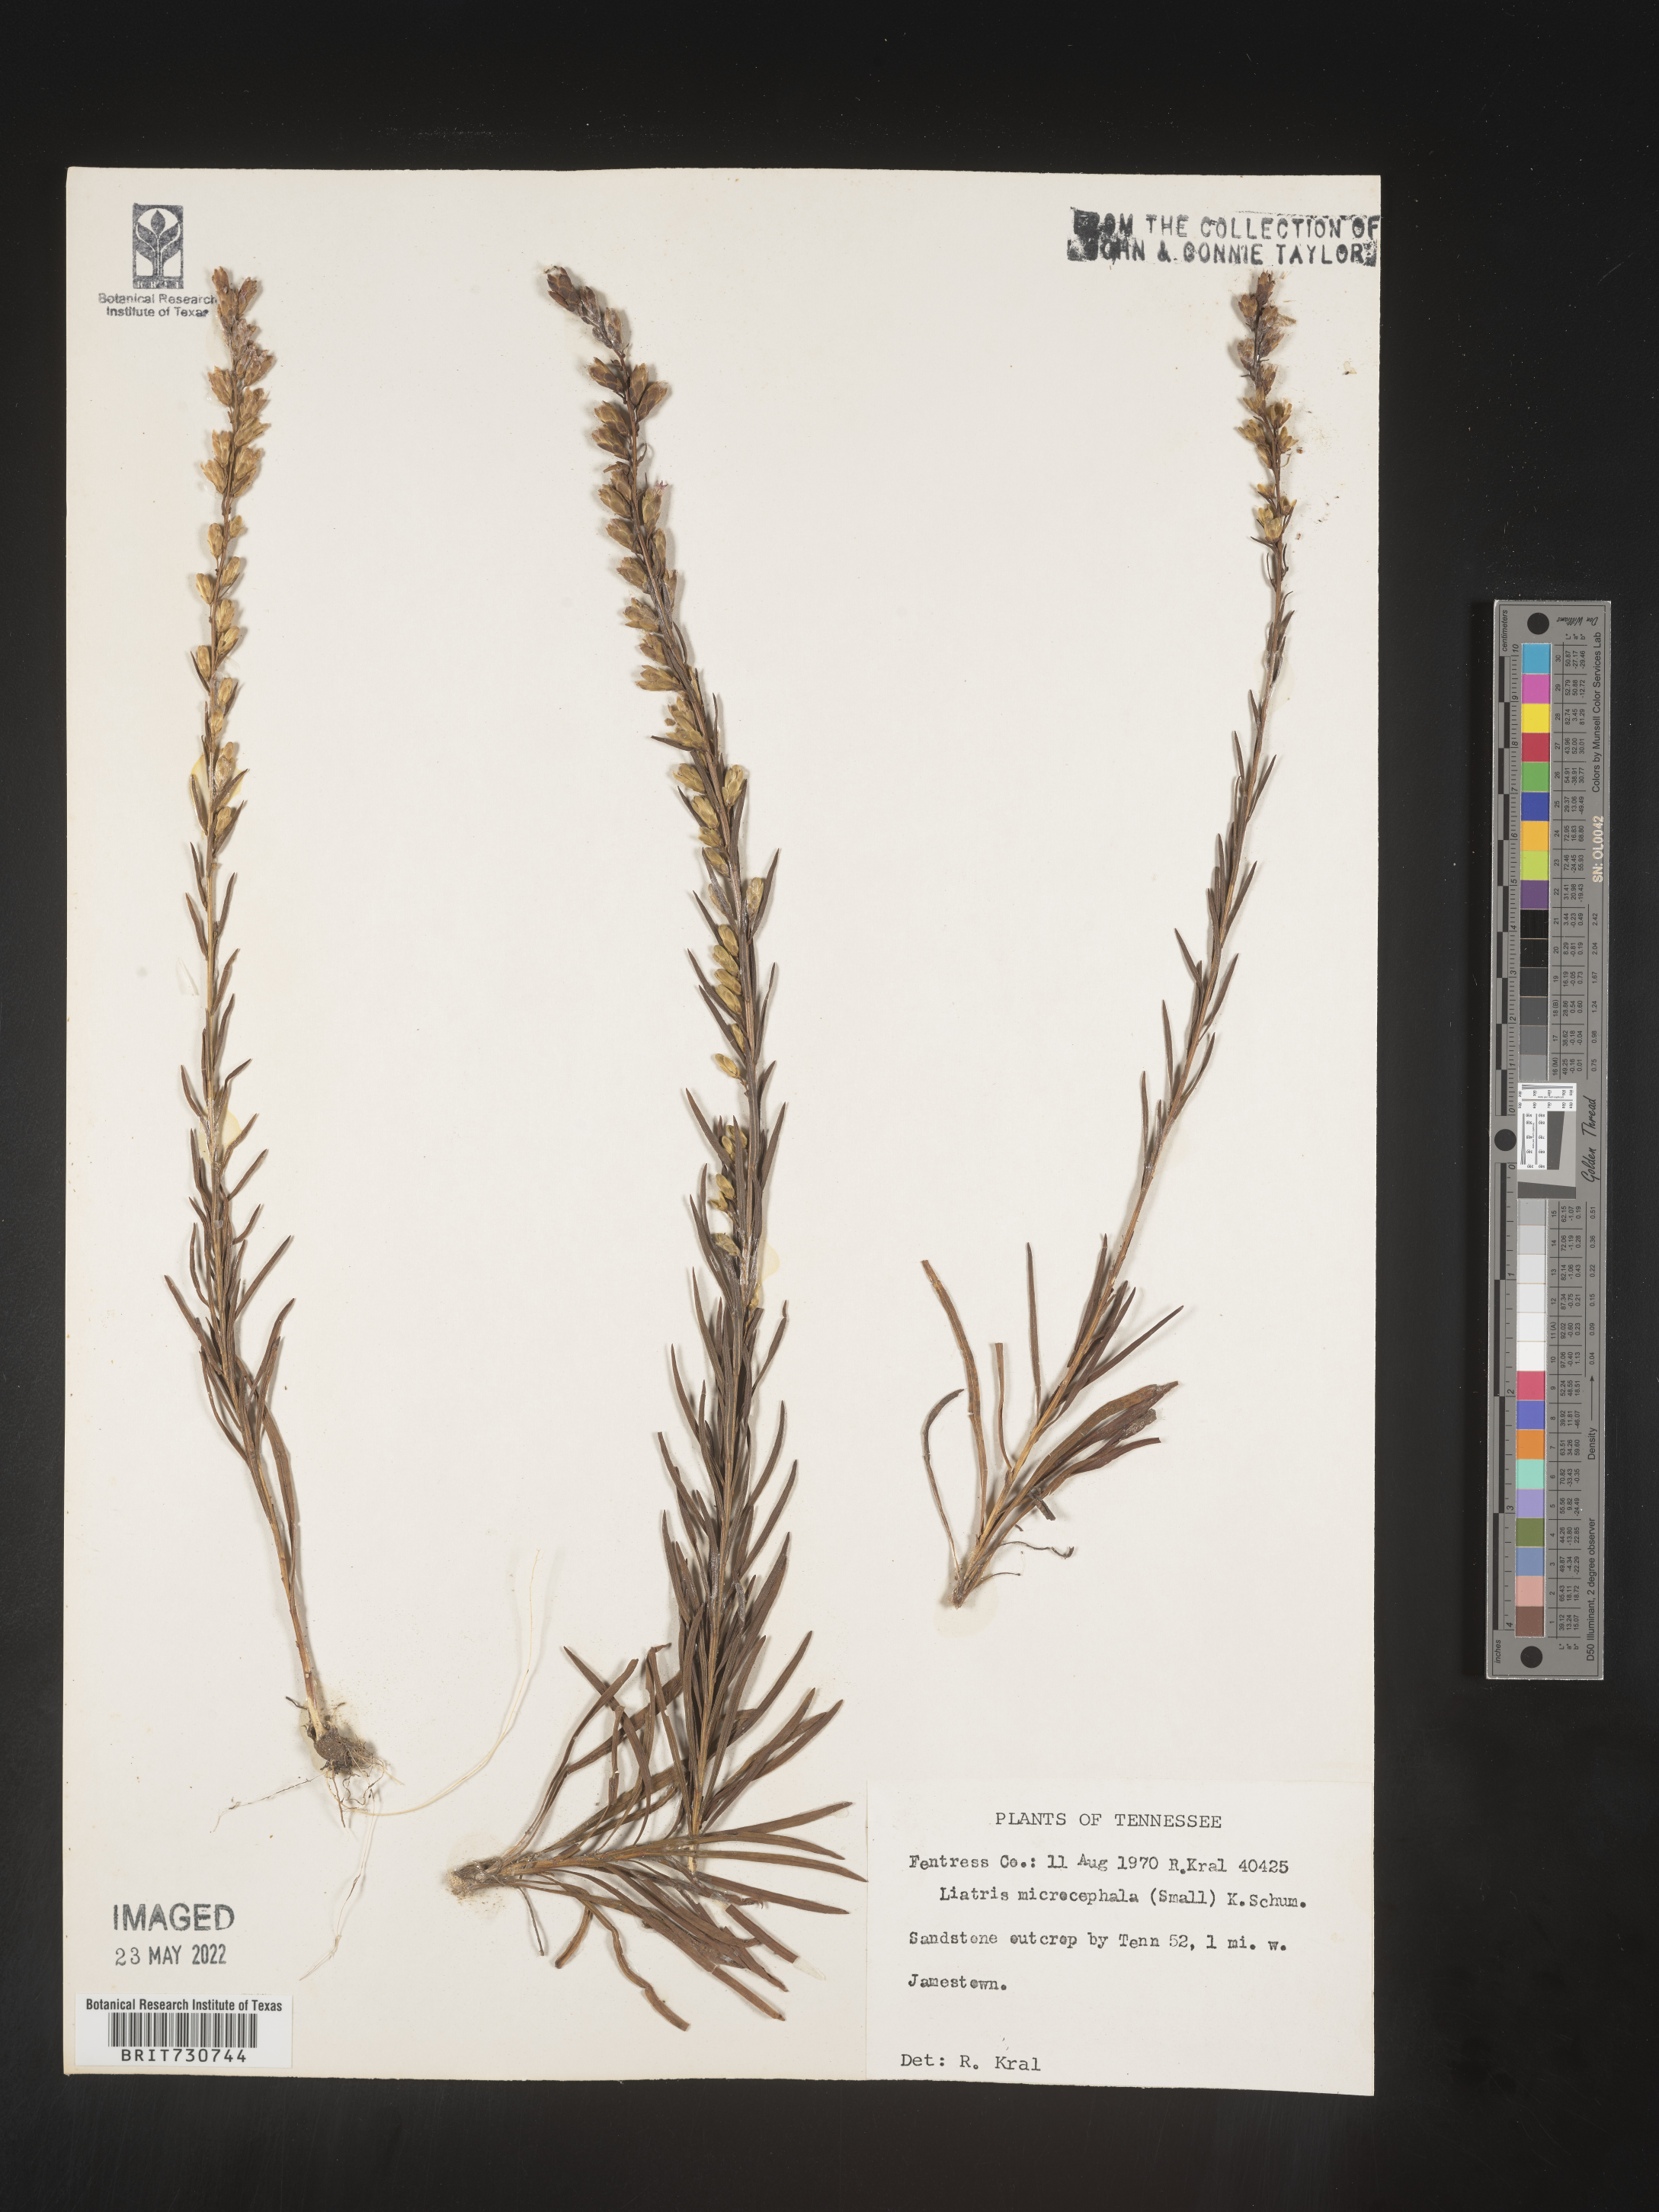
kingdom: Plantae
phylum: Tracheophyta
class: Magnoliopsida
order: Asterales
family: Asteraceae
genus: Liatris
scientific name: Liatris microcephala
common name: Small-head gayfeather
